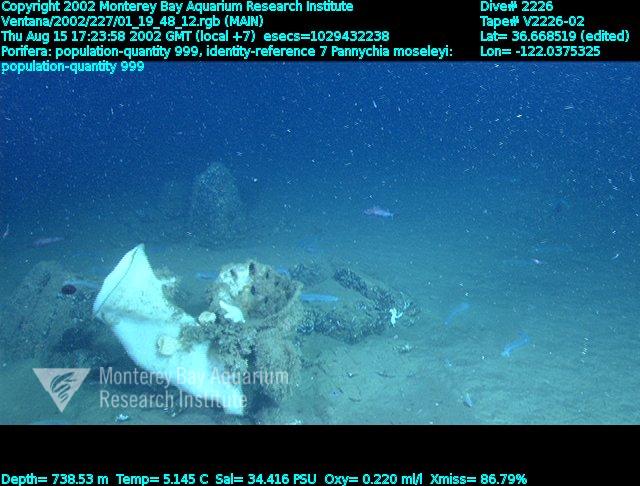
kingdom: Animalia
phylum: Porifera
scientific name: Porifera
